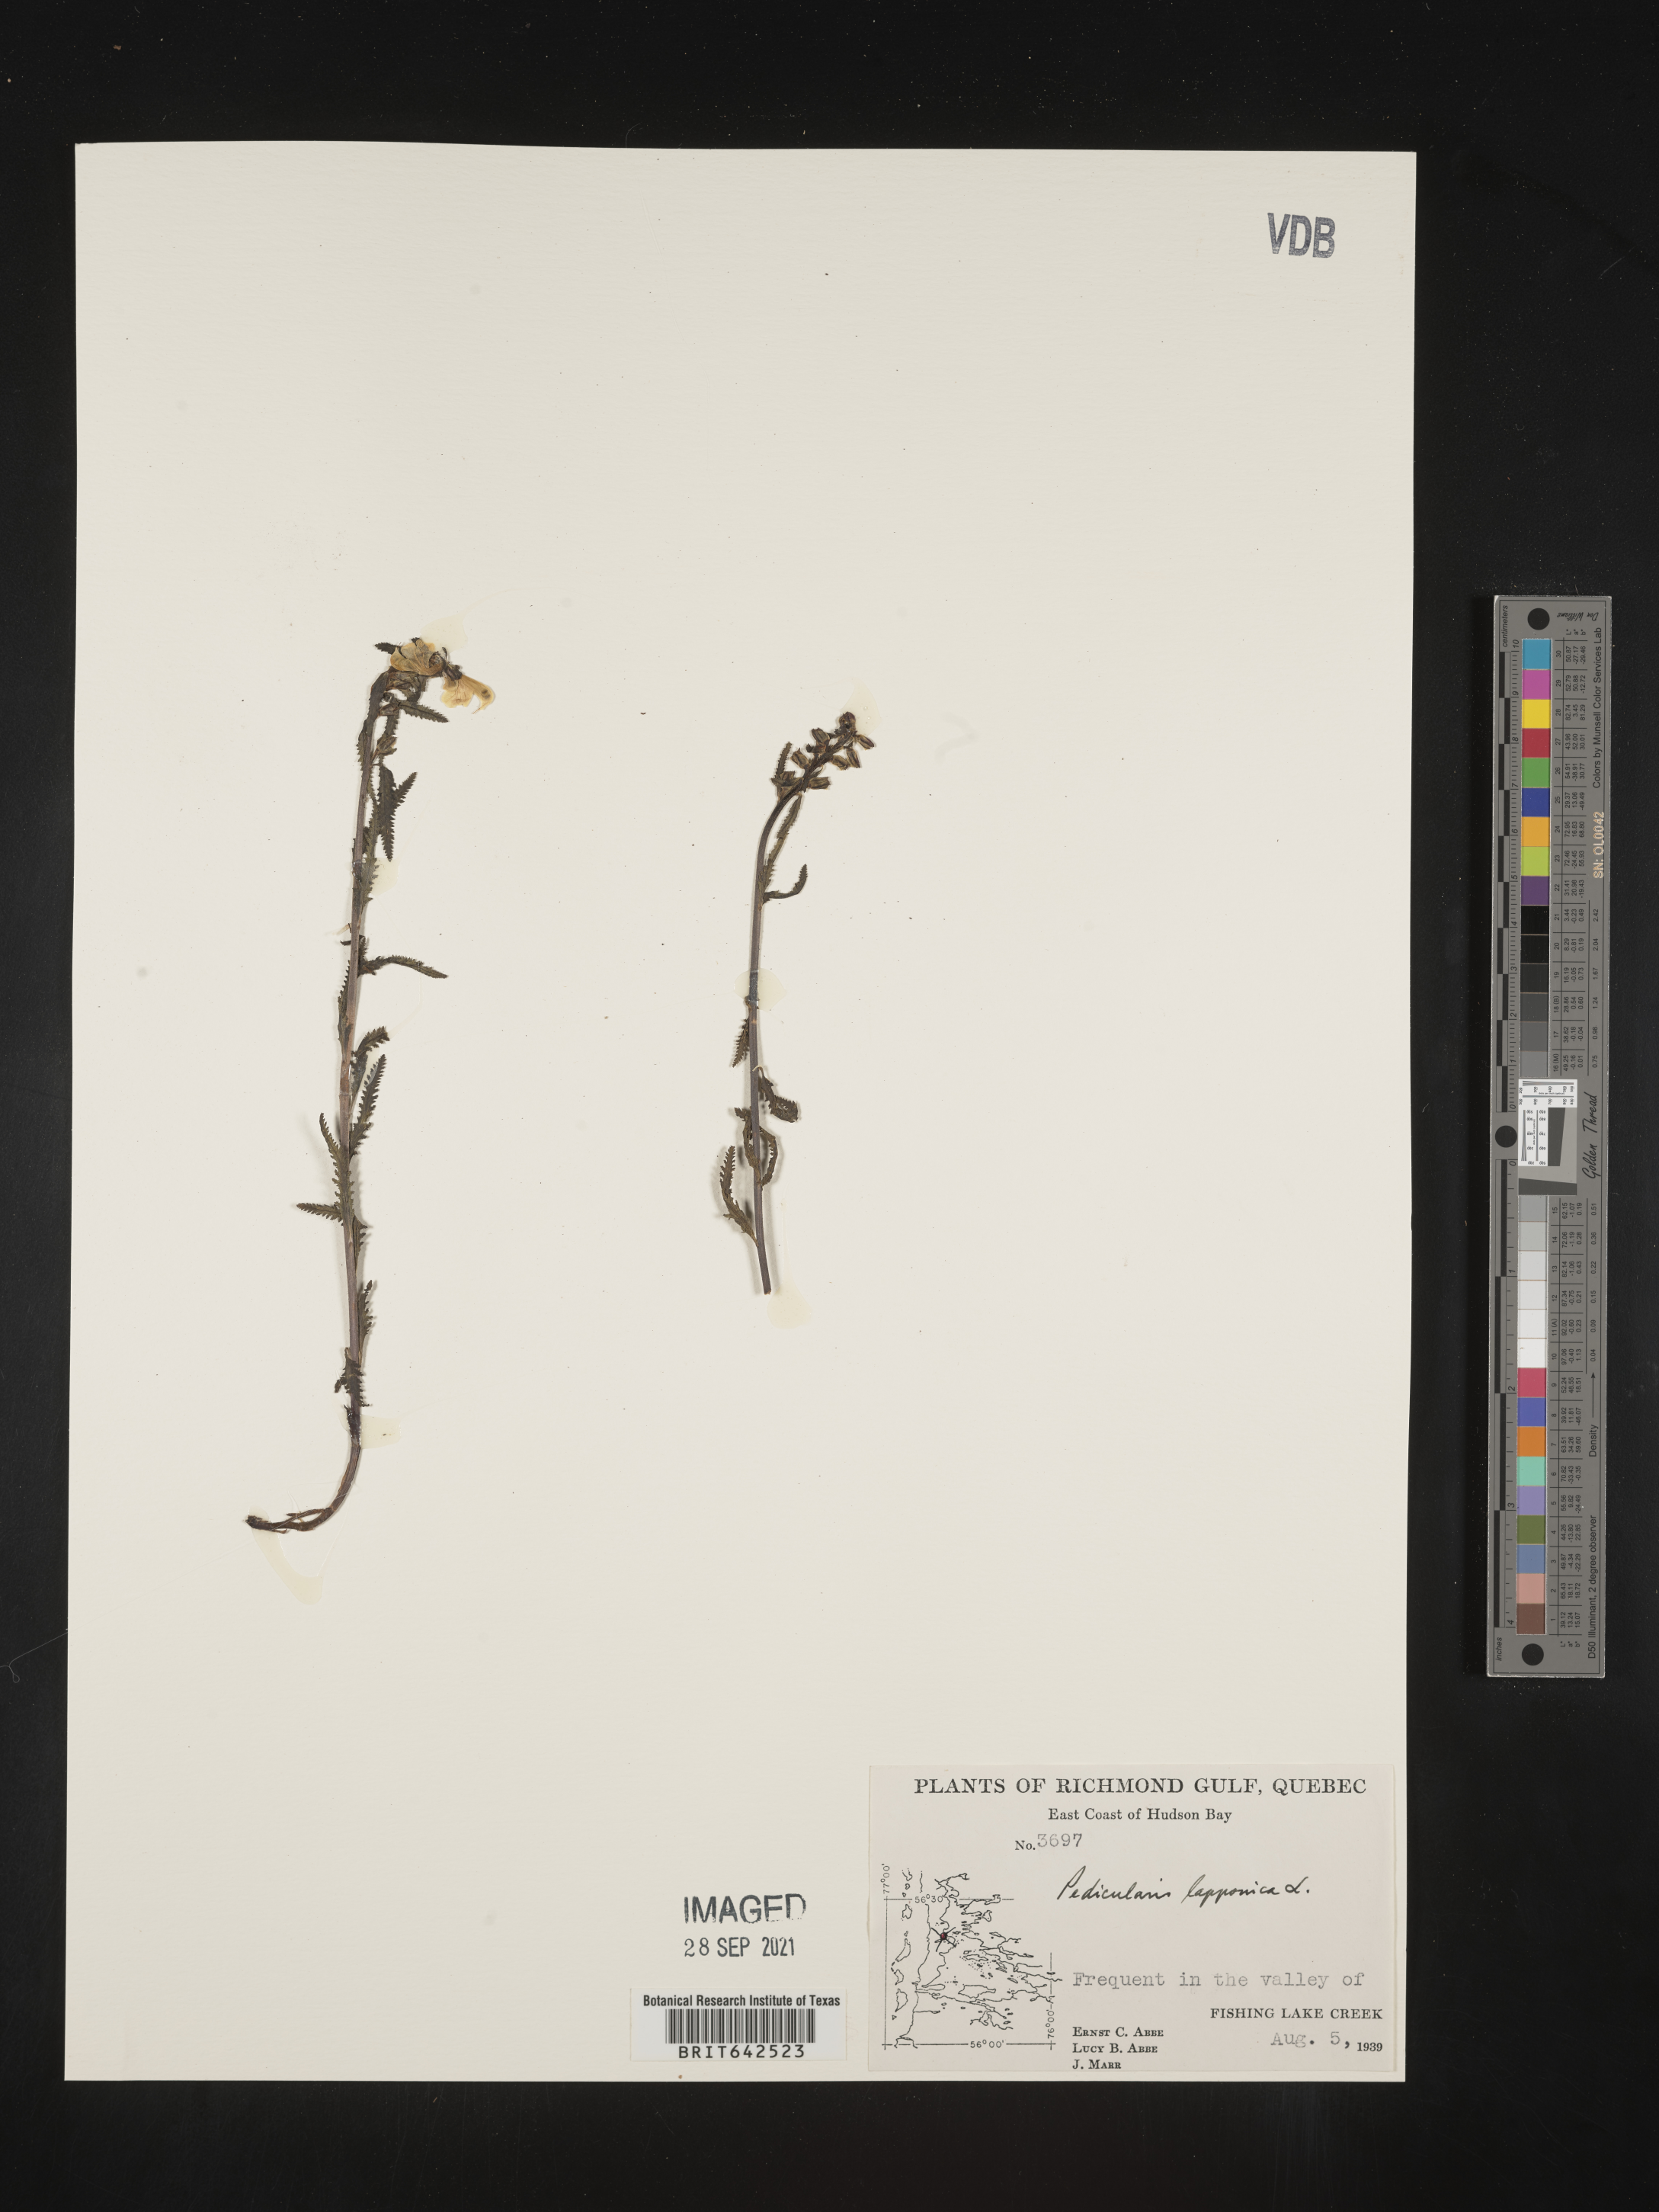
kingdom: Plantae
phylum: Tracheophyta
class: Magnoliopsida
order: Lamiales
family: Orobanchaceae
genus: Pedicularis
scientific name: Pedicularis
